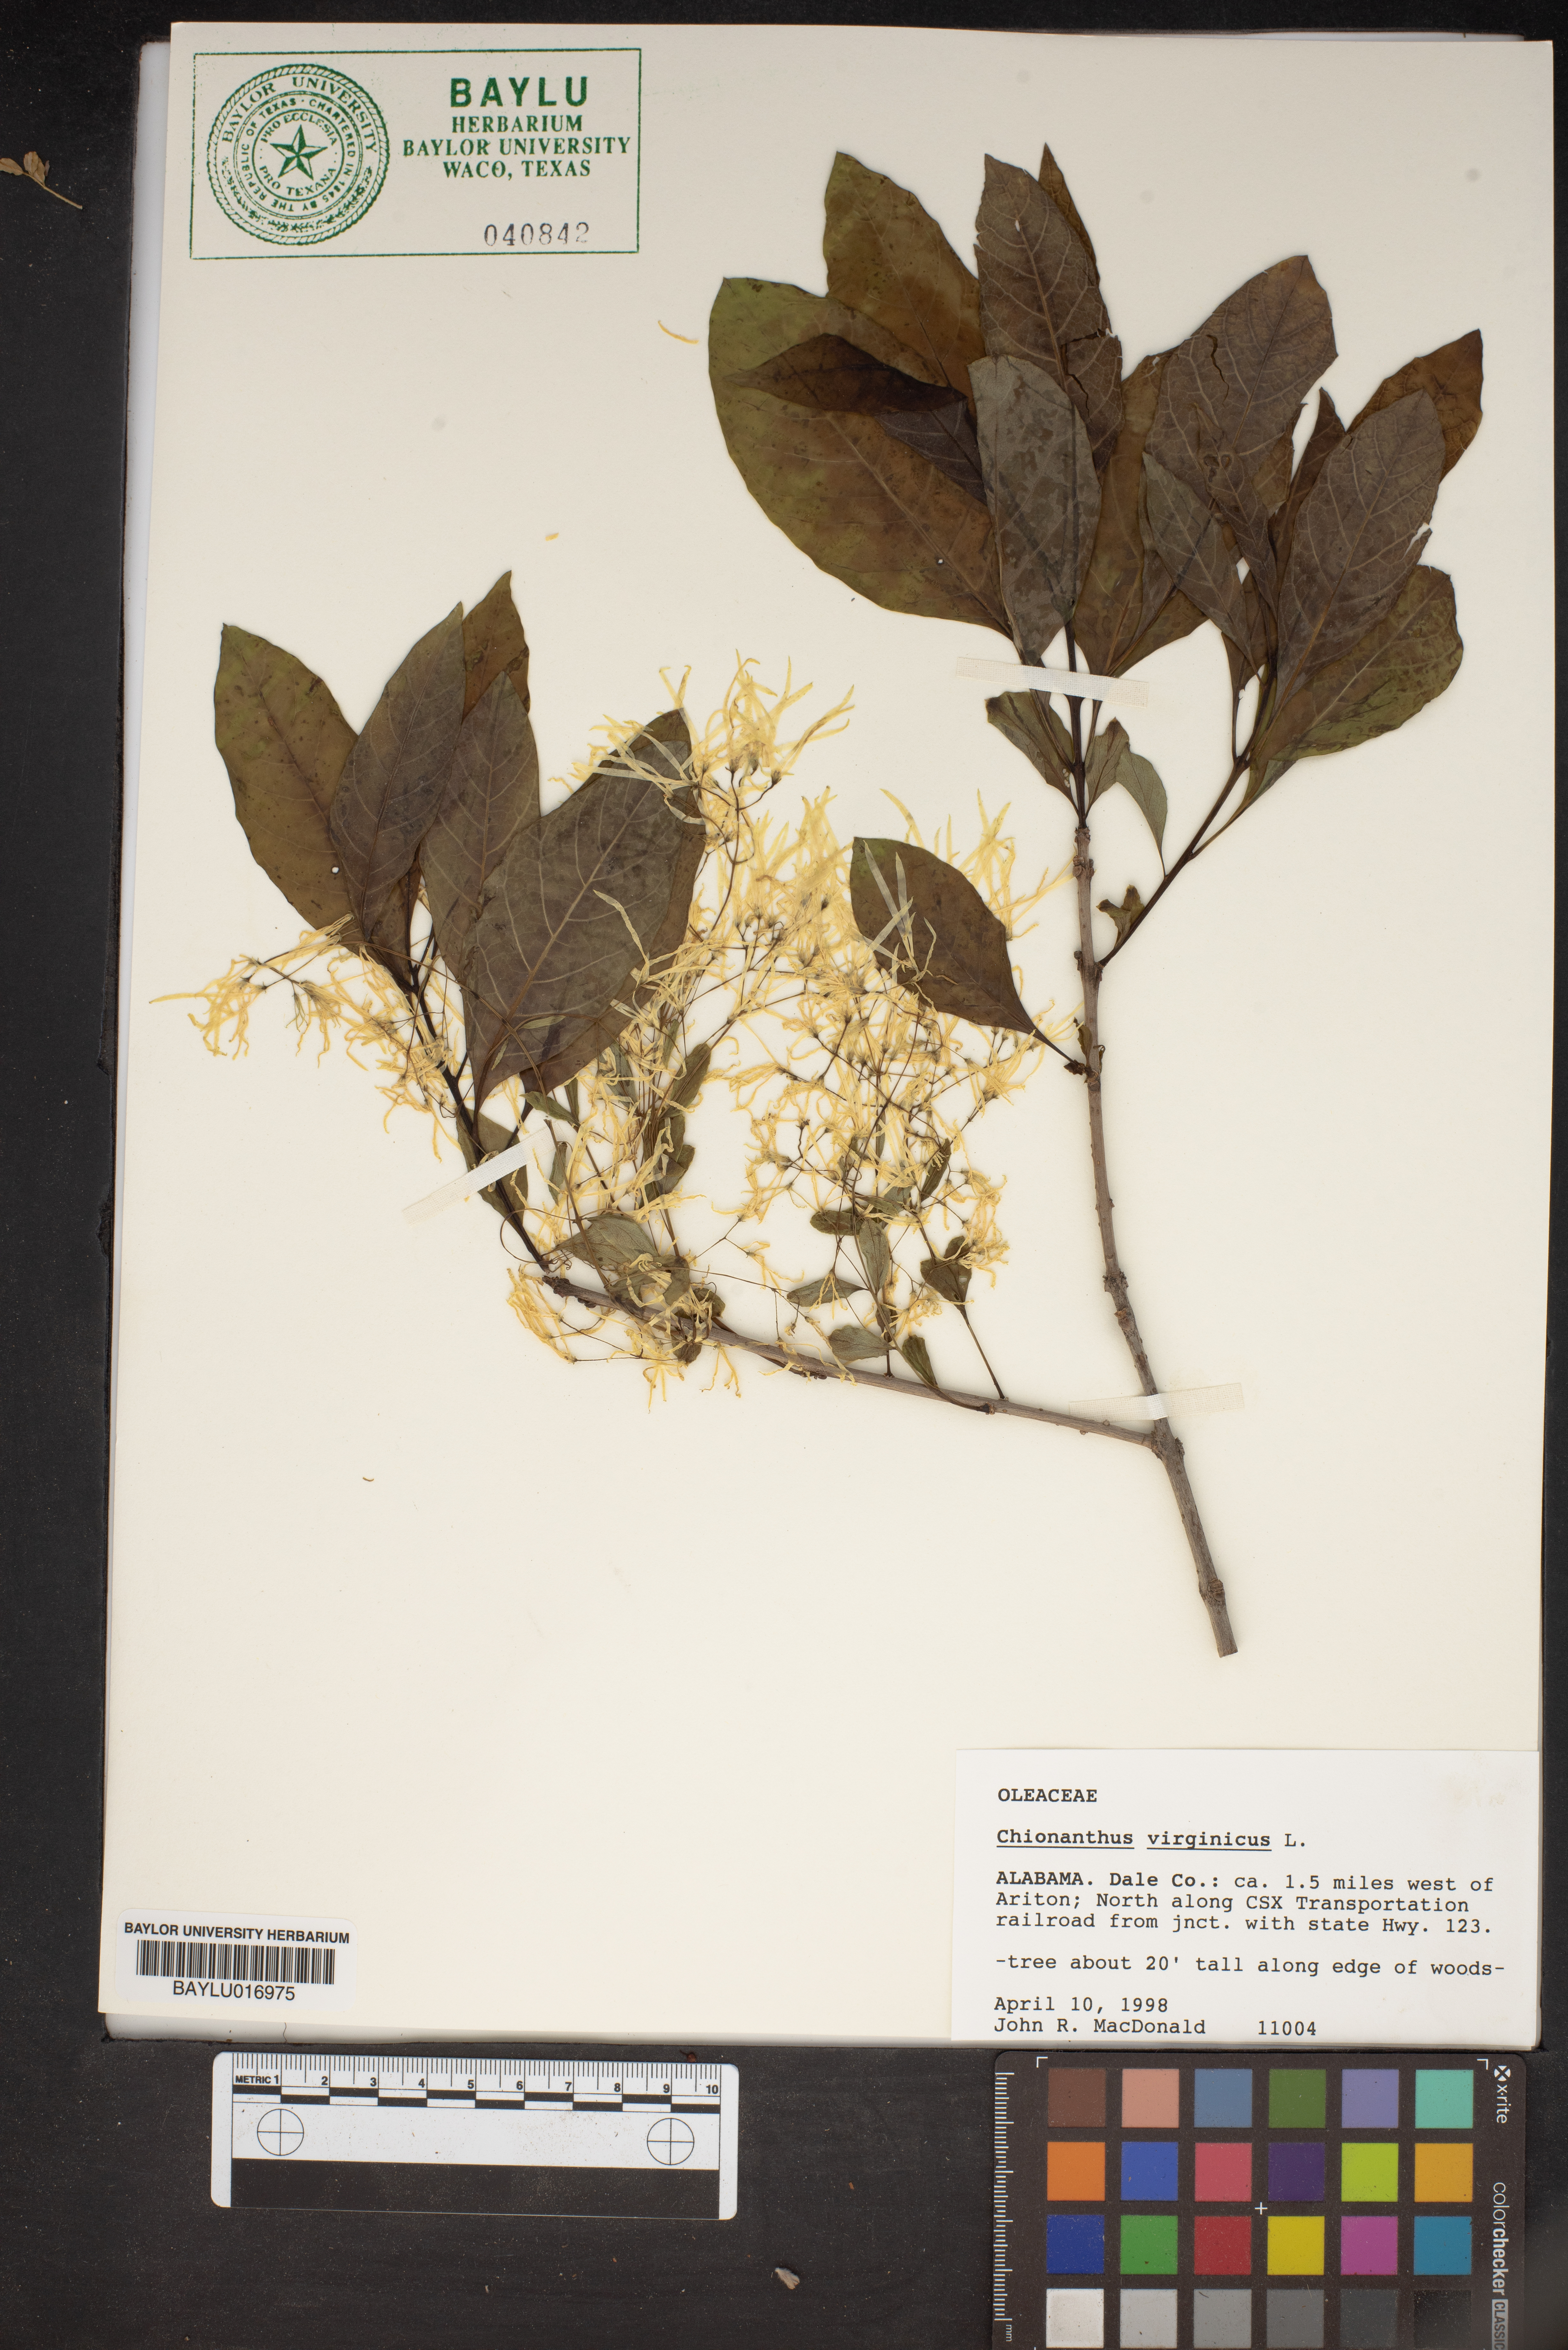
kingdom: Plantae
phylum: Tracheophyta
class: Magnoliopsida
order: Lamiales
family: Oleaceae
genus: Chionanthus
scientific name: Chionanthus virginicus
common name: American fringetree
